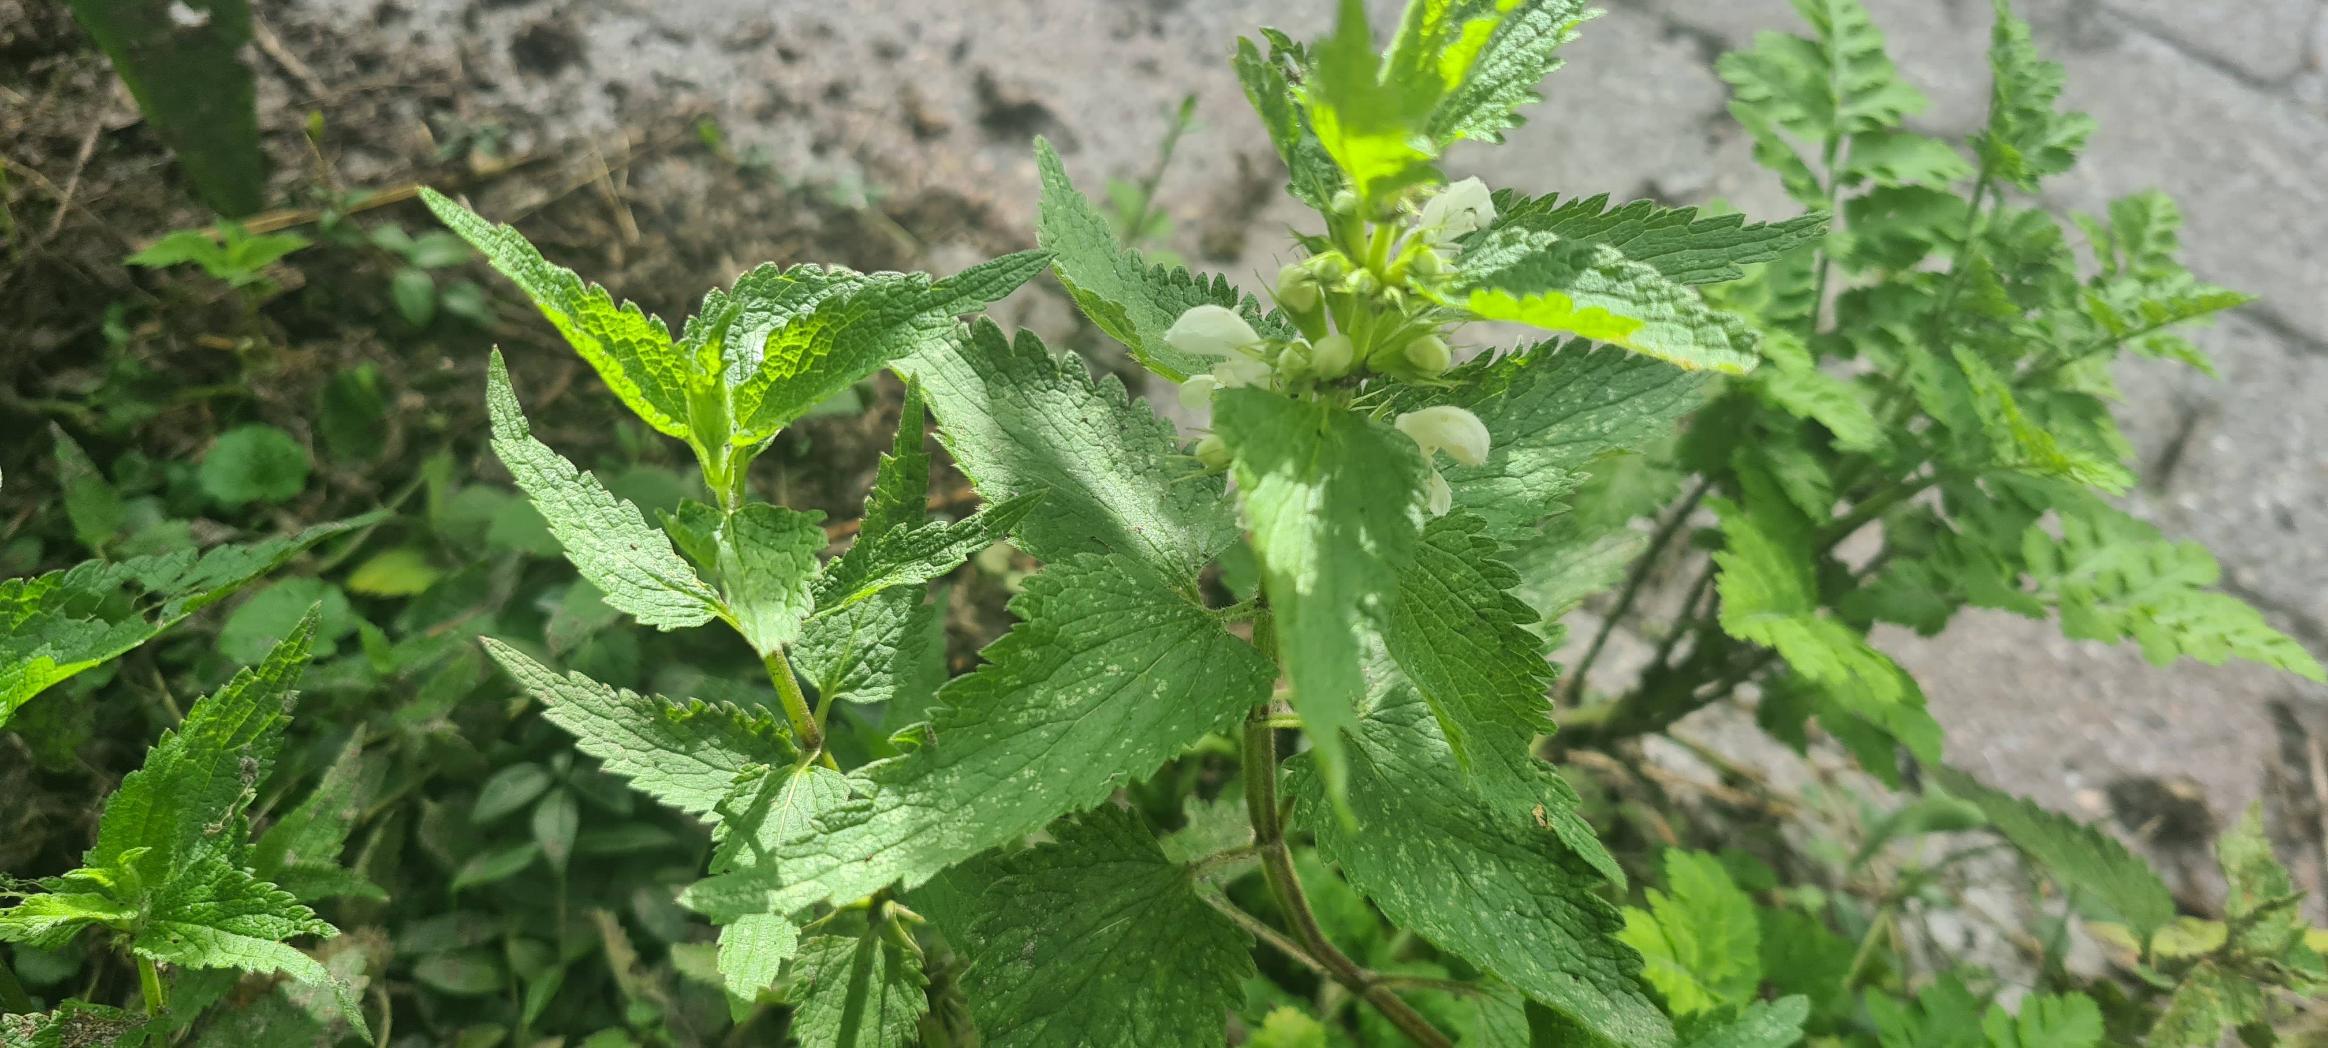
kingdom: Plantae
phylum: Tracheophyta
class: Magnoliopsida
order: Lamiales
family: Lamiaceae
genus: Lamium
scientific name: Lamium album
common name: Døvnælde
